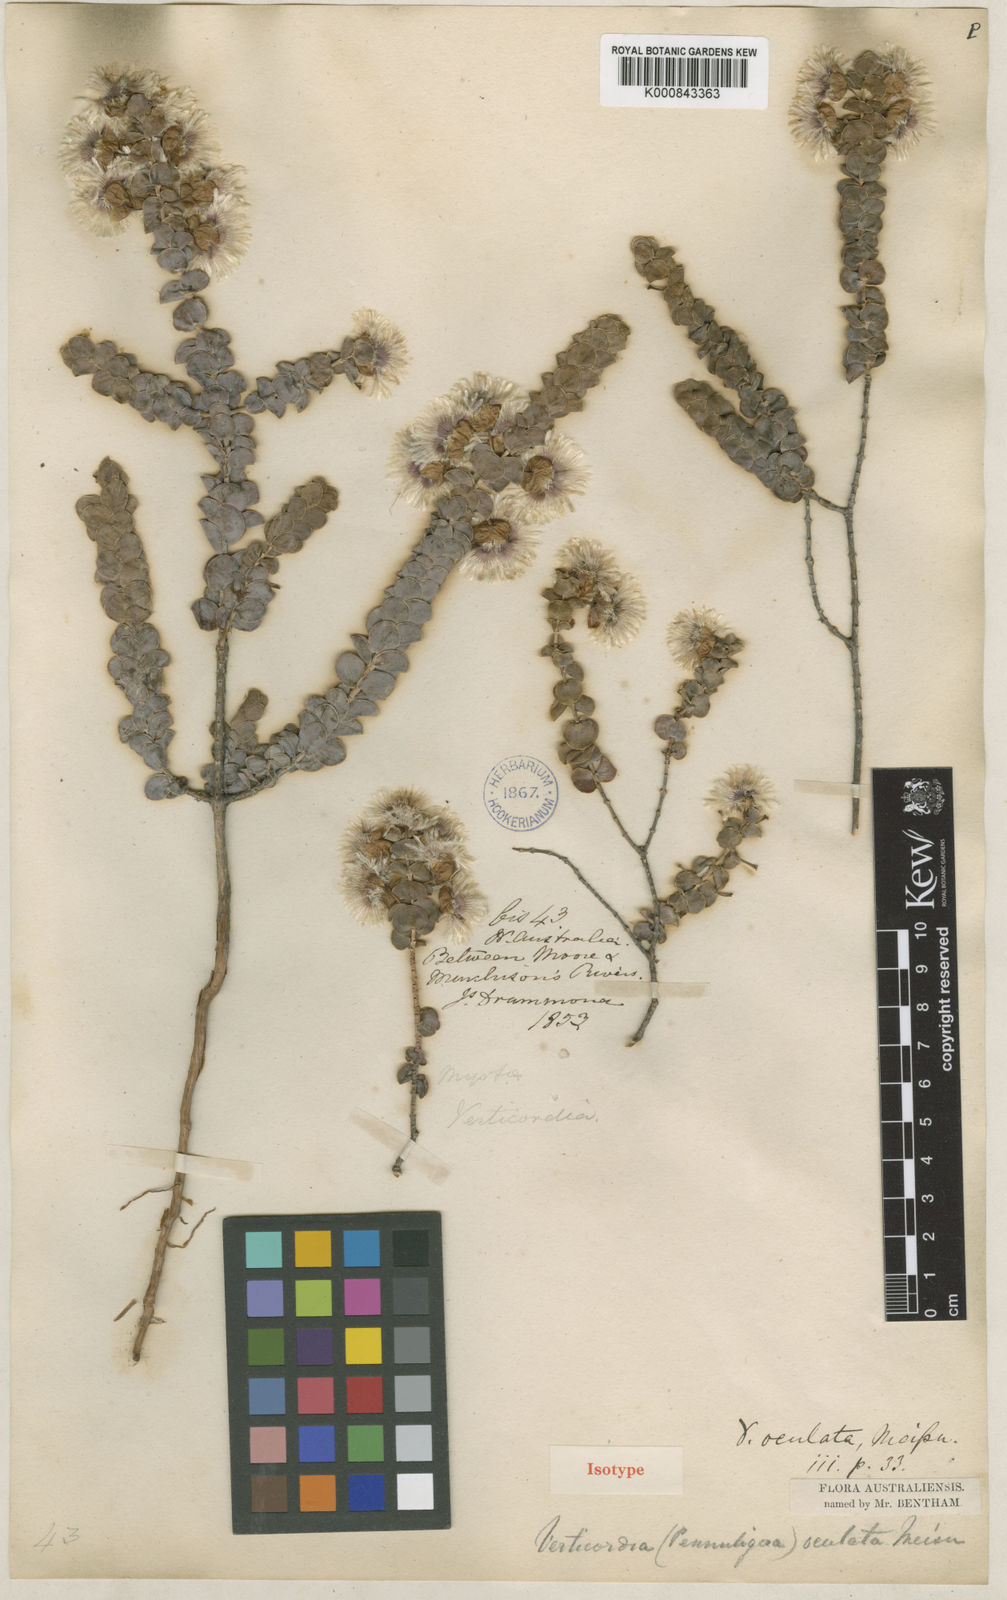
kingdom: Plantae
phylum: Tracheophyta
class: Magnoliopsida
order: Myrtales
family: Myrtaceae
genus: Verticordia
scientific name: Verticordia oculata
